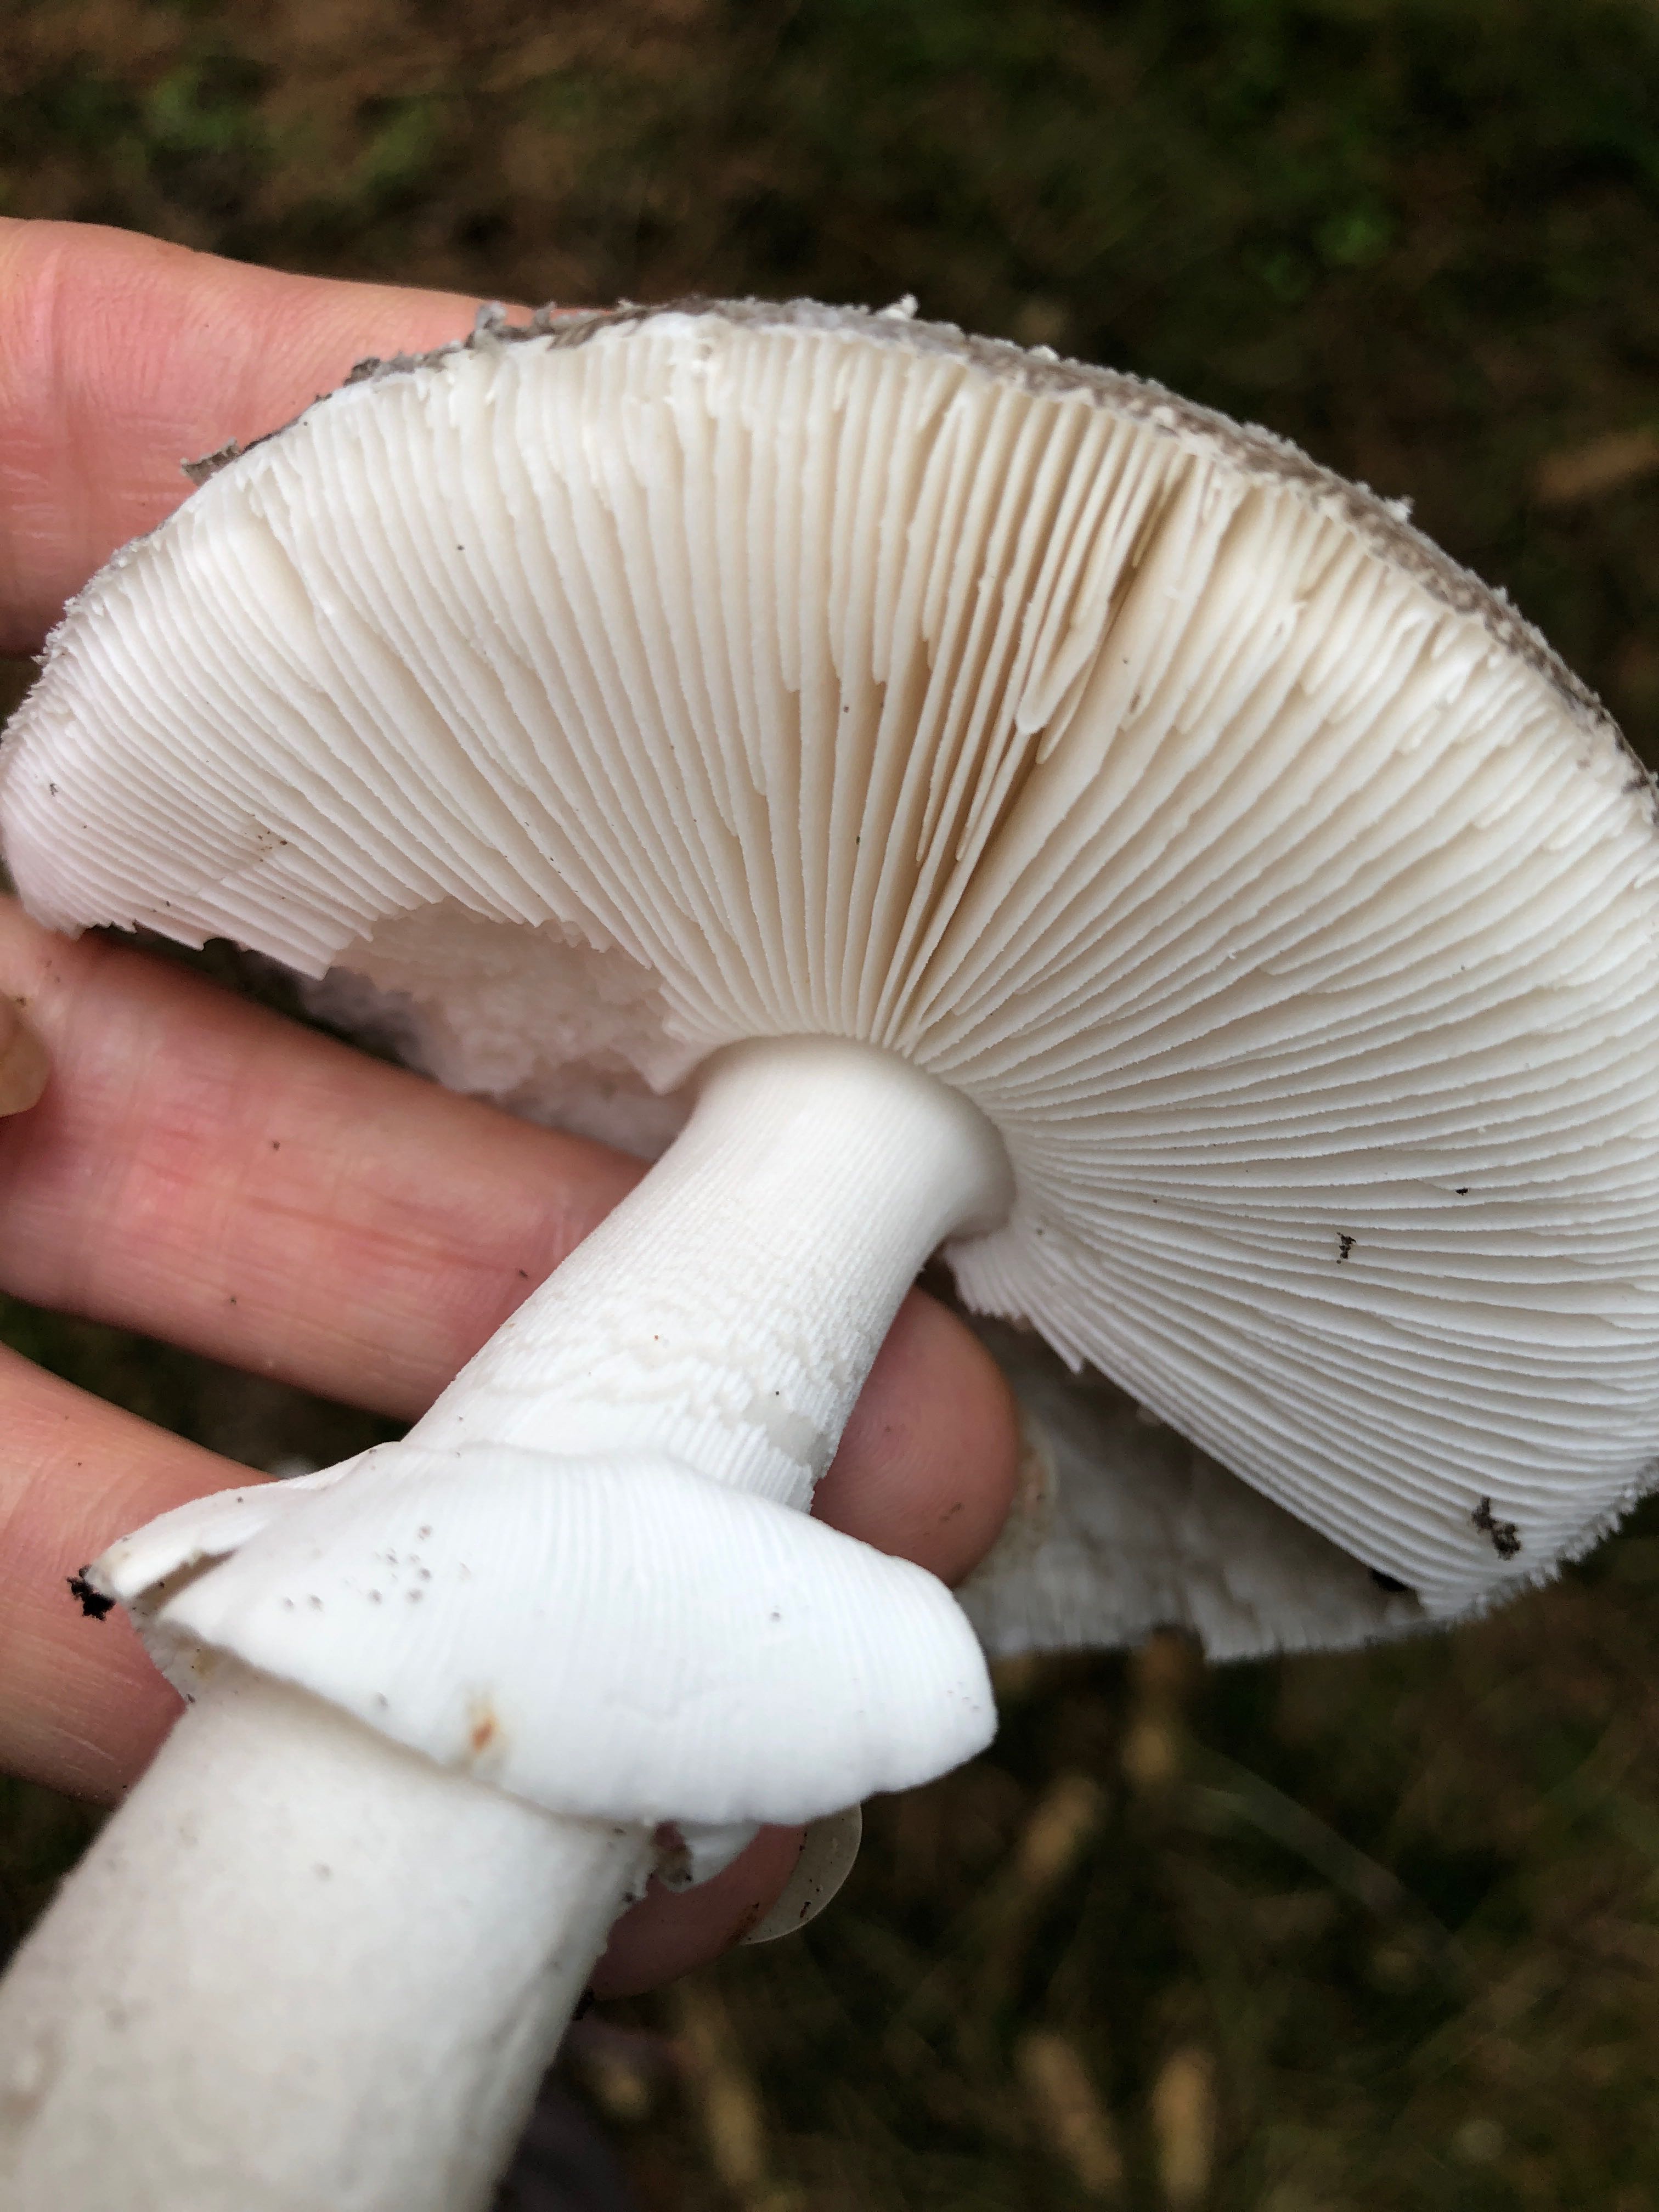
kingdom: Fungi
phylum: Basidiomycota
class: Agaricomycetes
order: Agaricales
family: Amanitaceae
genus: Amanita
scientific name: Amanita
